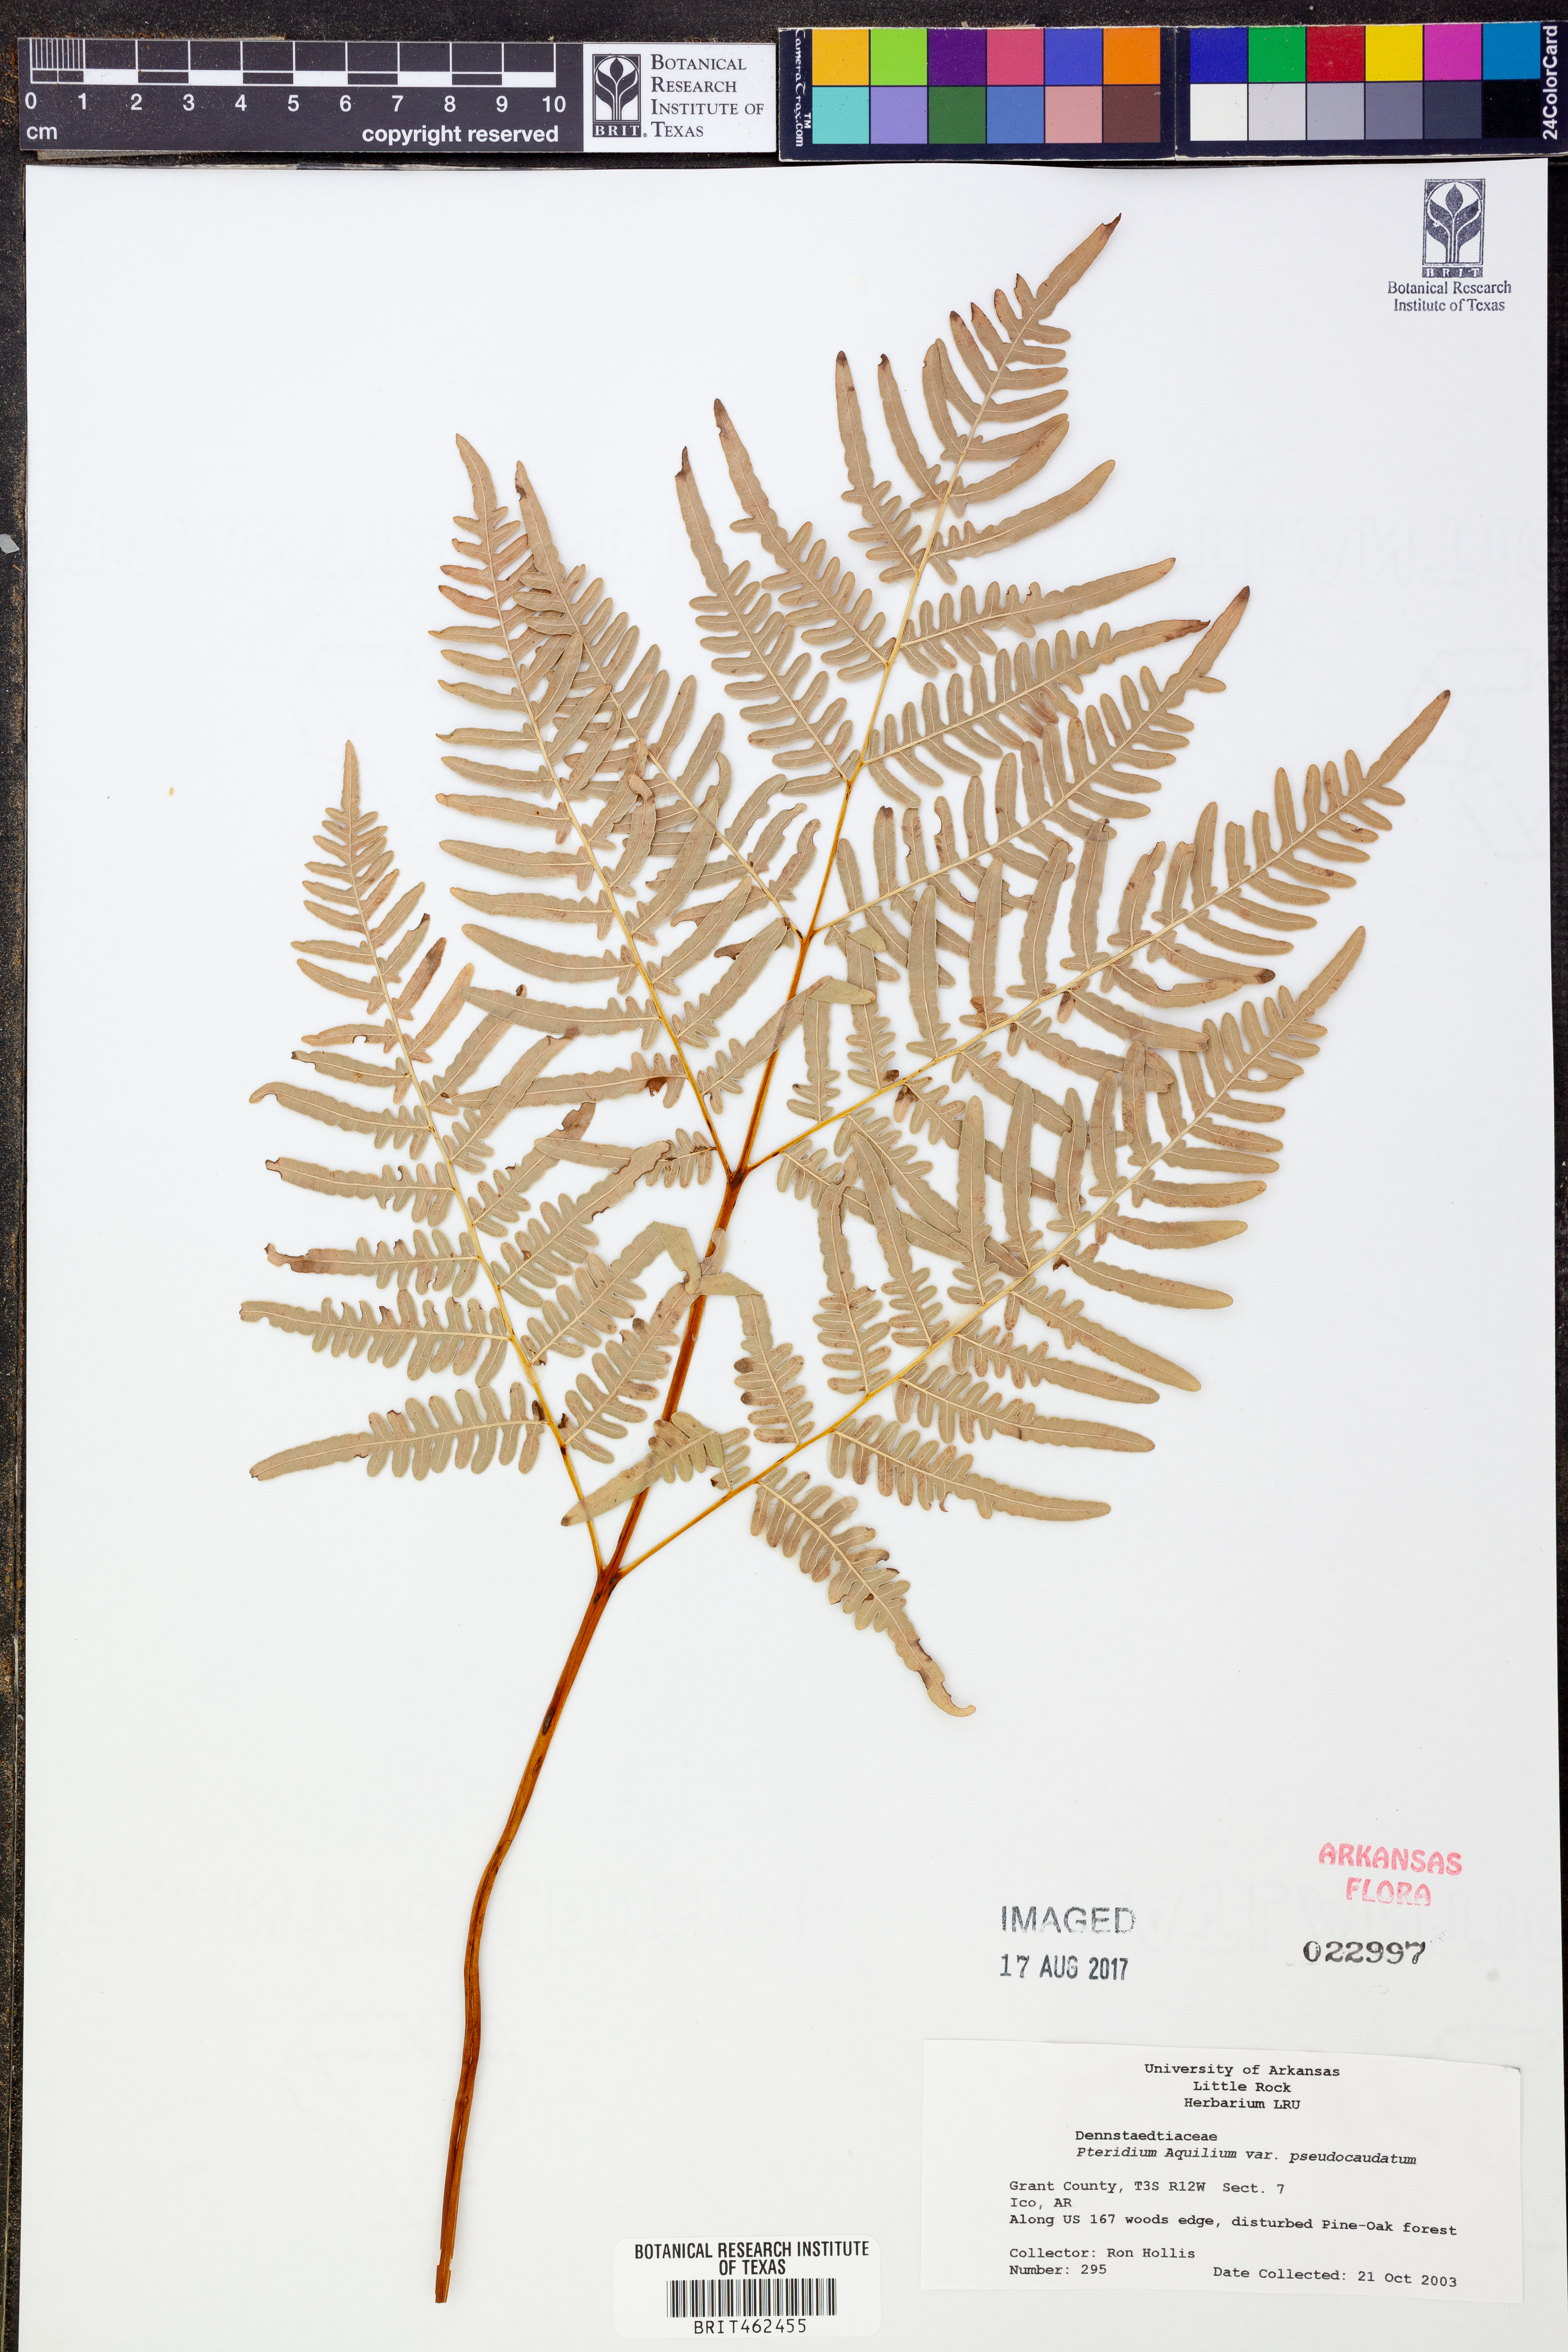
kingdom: Plantae
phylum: Tracheophyta
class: Polypodiopsida
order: Polypodiales
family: Dennstaedtiaceae
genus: Pteridium
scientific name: Pteridium aquilinum
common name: Bracken
